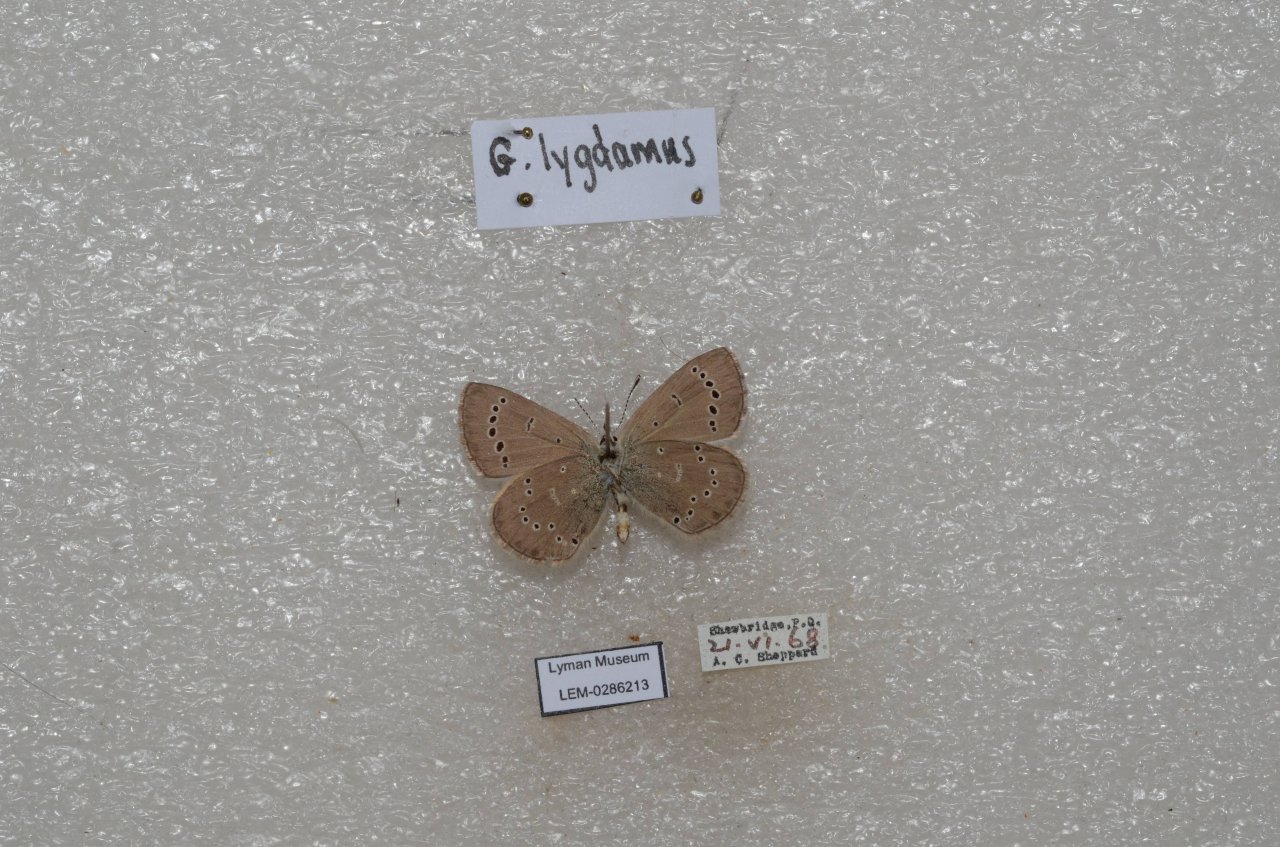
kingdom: Animalia
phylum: Arthropoda
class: Insecta
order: Lepidoptera
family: Lycaenidae
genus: Glaucopsyche
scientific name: Glaucopsyche lygdamus
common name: Silvery Blue
